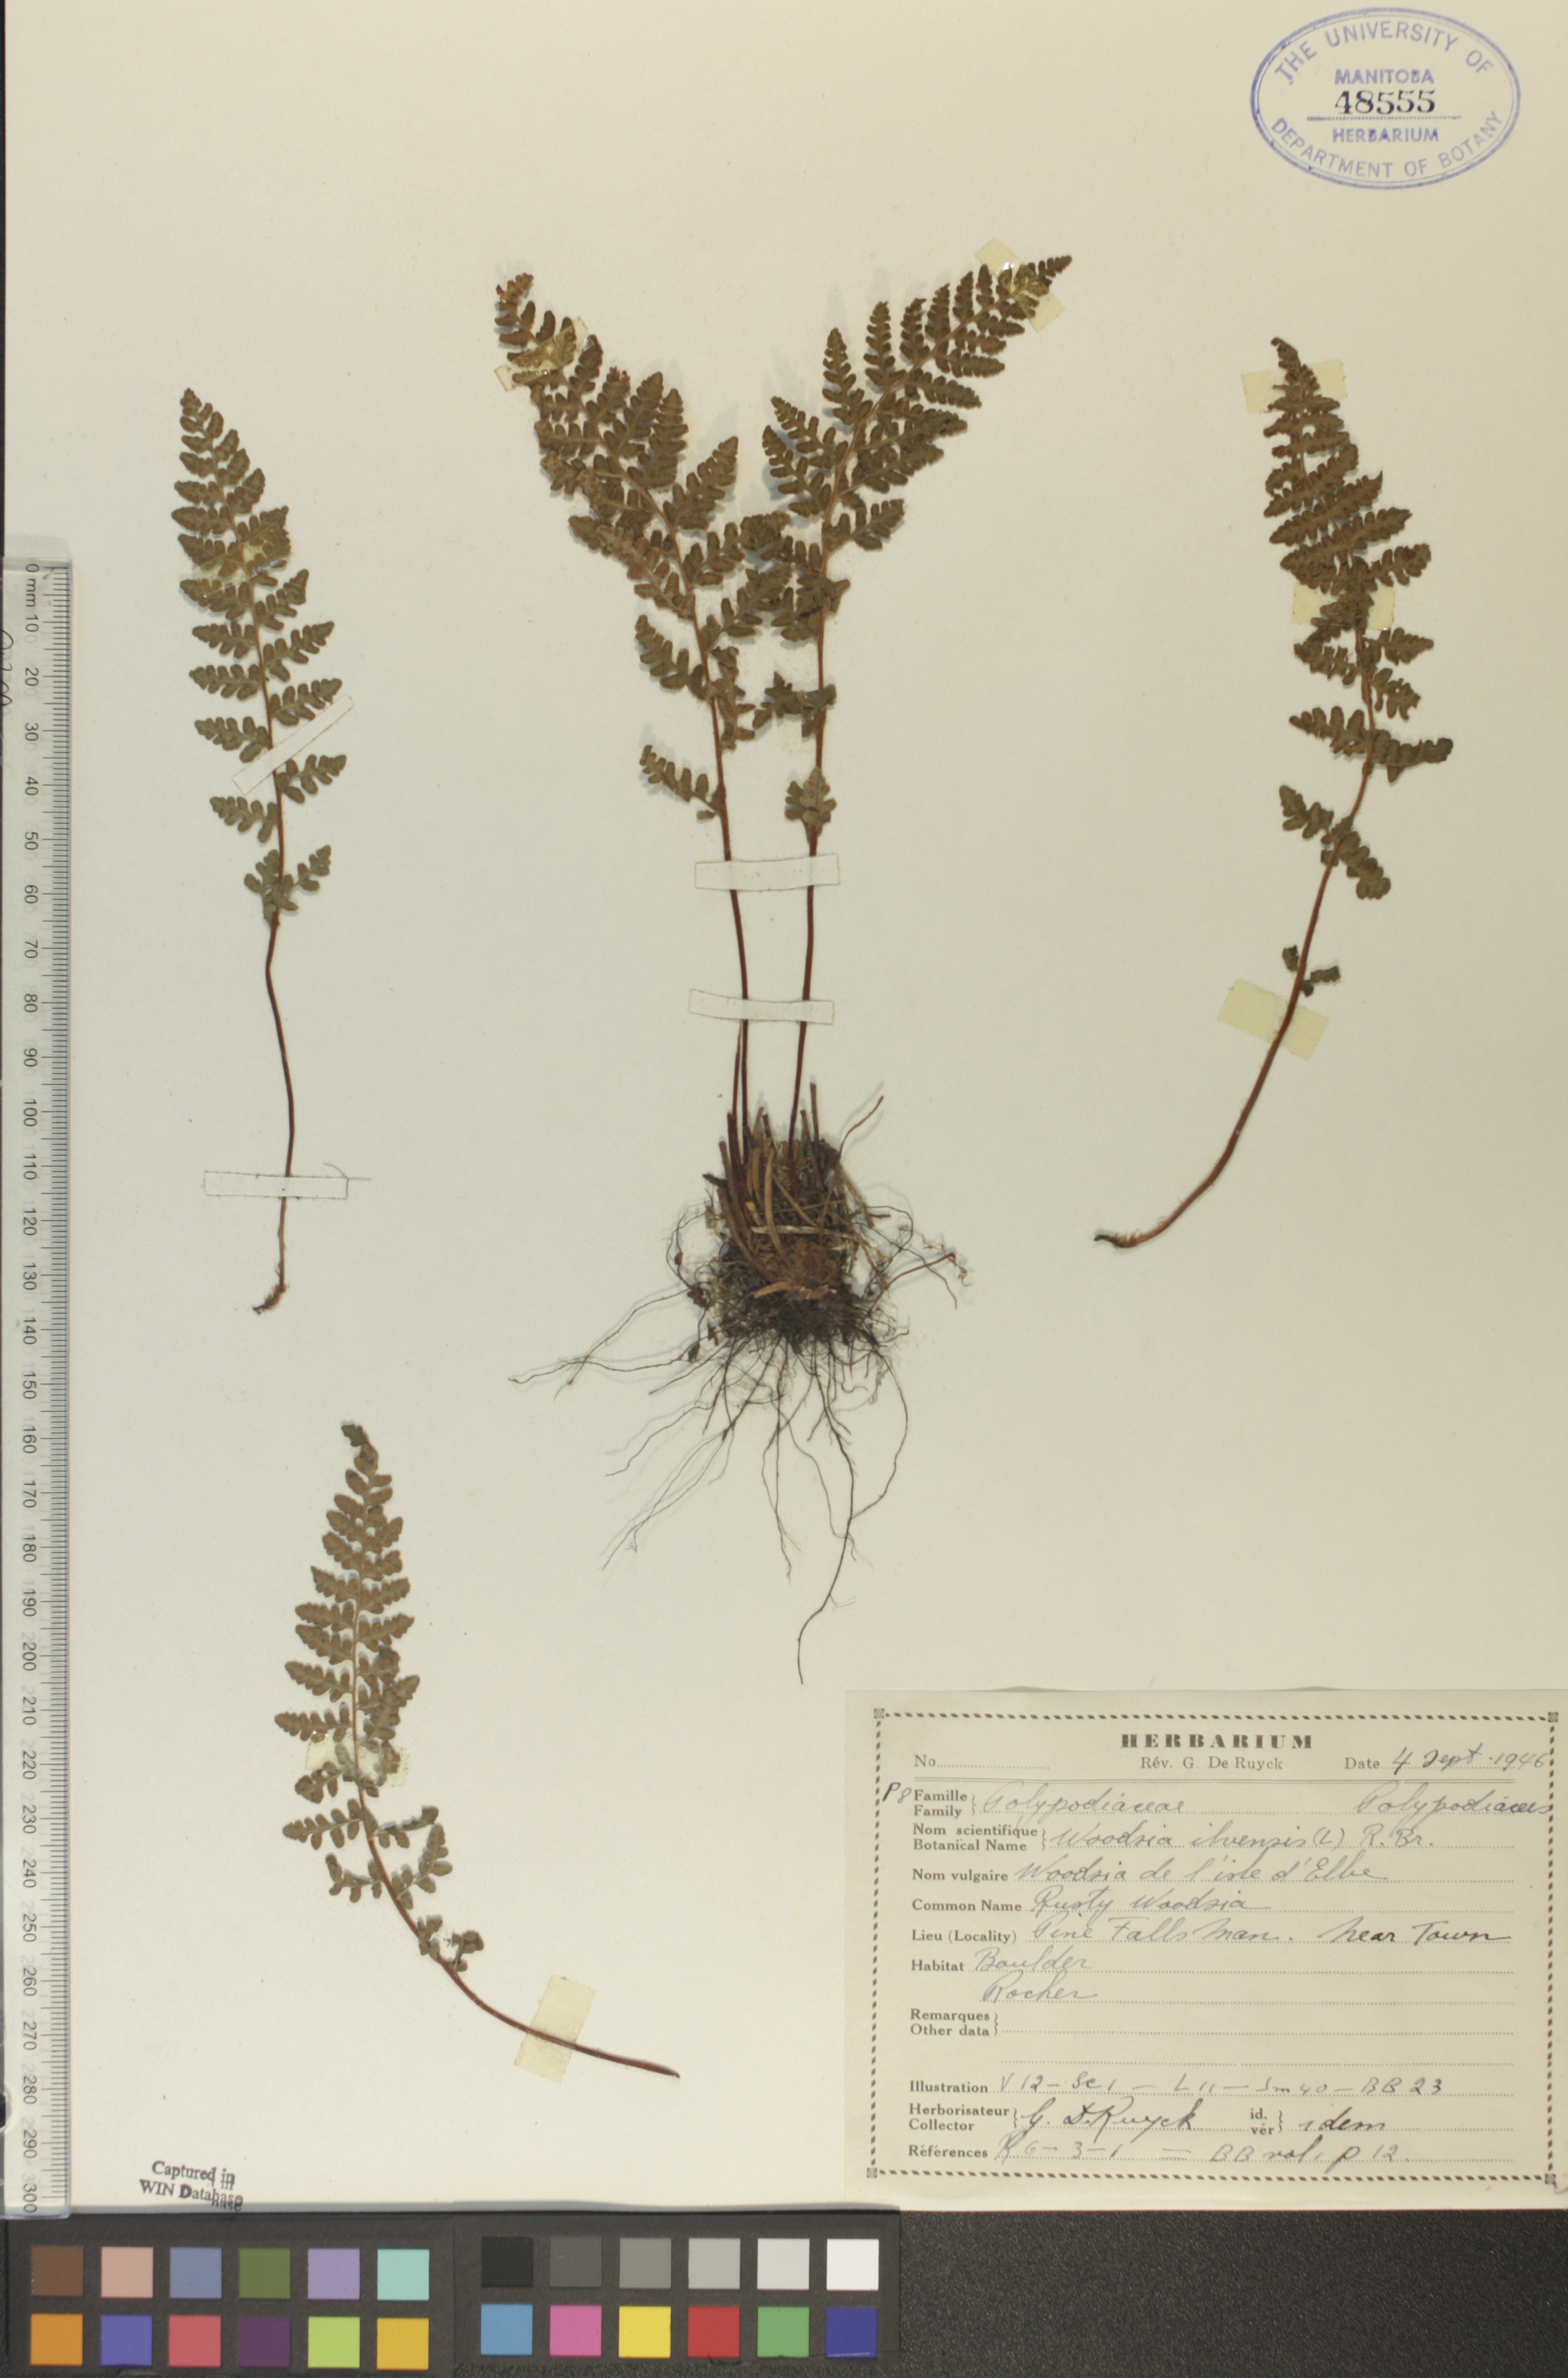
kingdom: Plantae
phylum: Tracheophyta
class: Polypodiopsida
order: Polypodiales
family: Woodsiaceae
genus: Woodsia
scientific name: Woodsia ilvensis
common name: Fragrant woodsia
